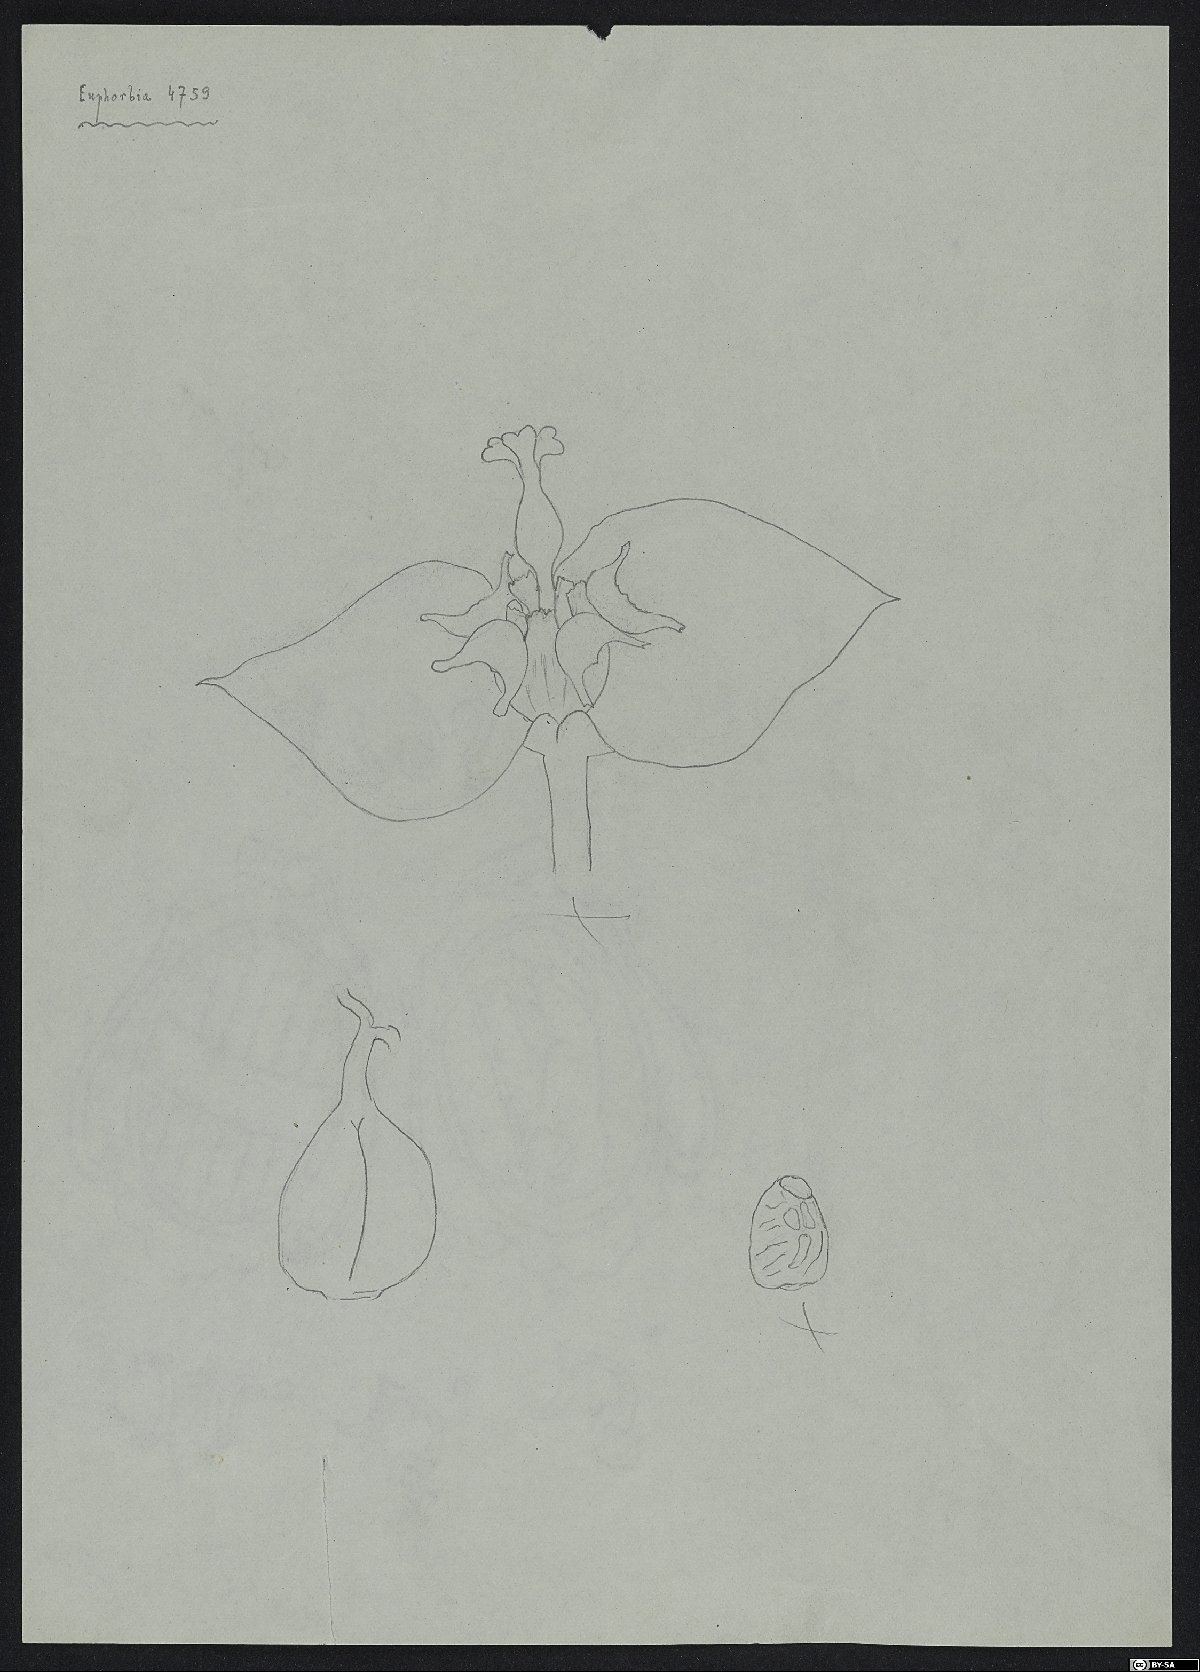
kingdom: Plantae
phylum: Tracheophyta
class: Magnoliopsida
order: Malpighiales
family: Euphorbiaceae
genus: Euphorbia
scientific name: Euphorbia kopetdaghi
